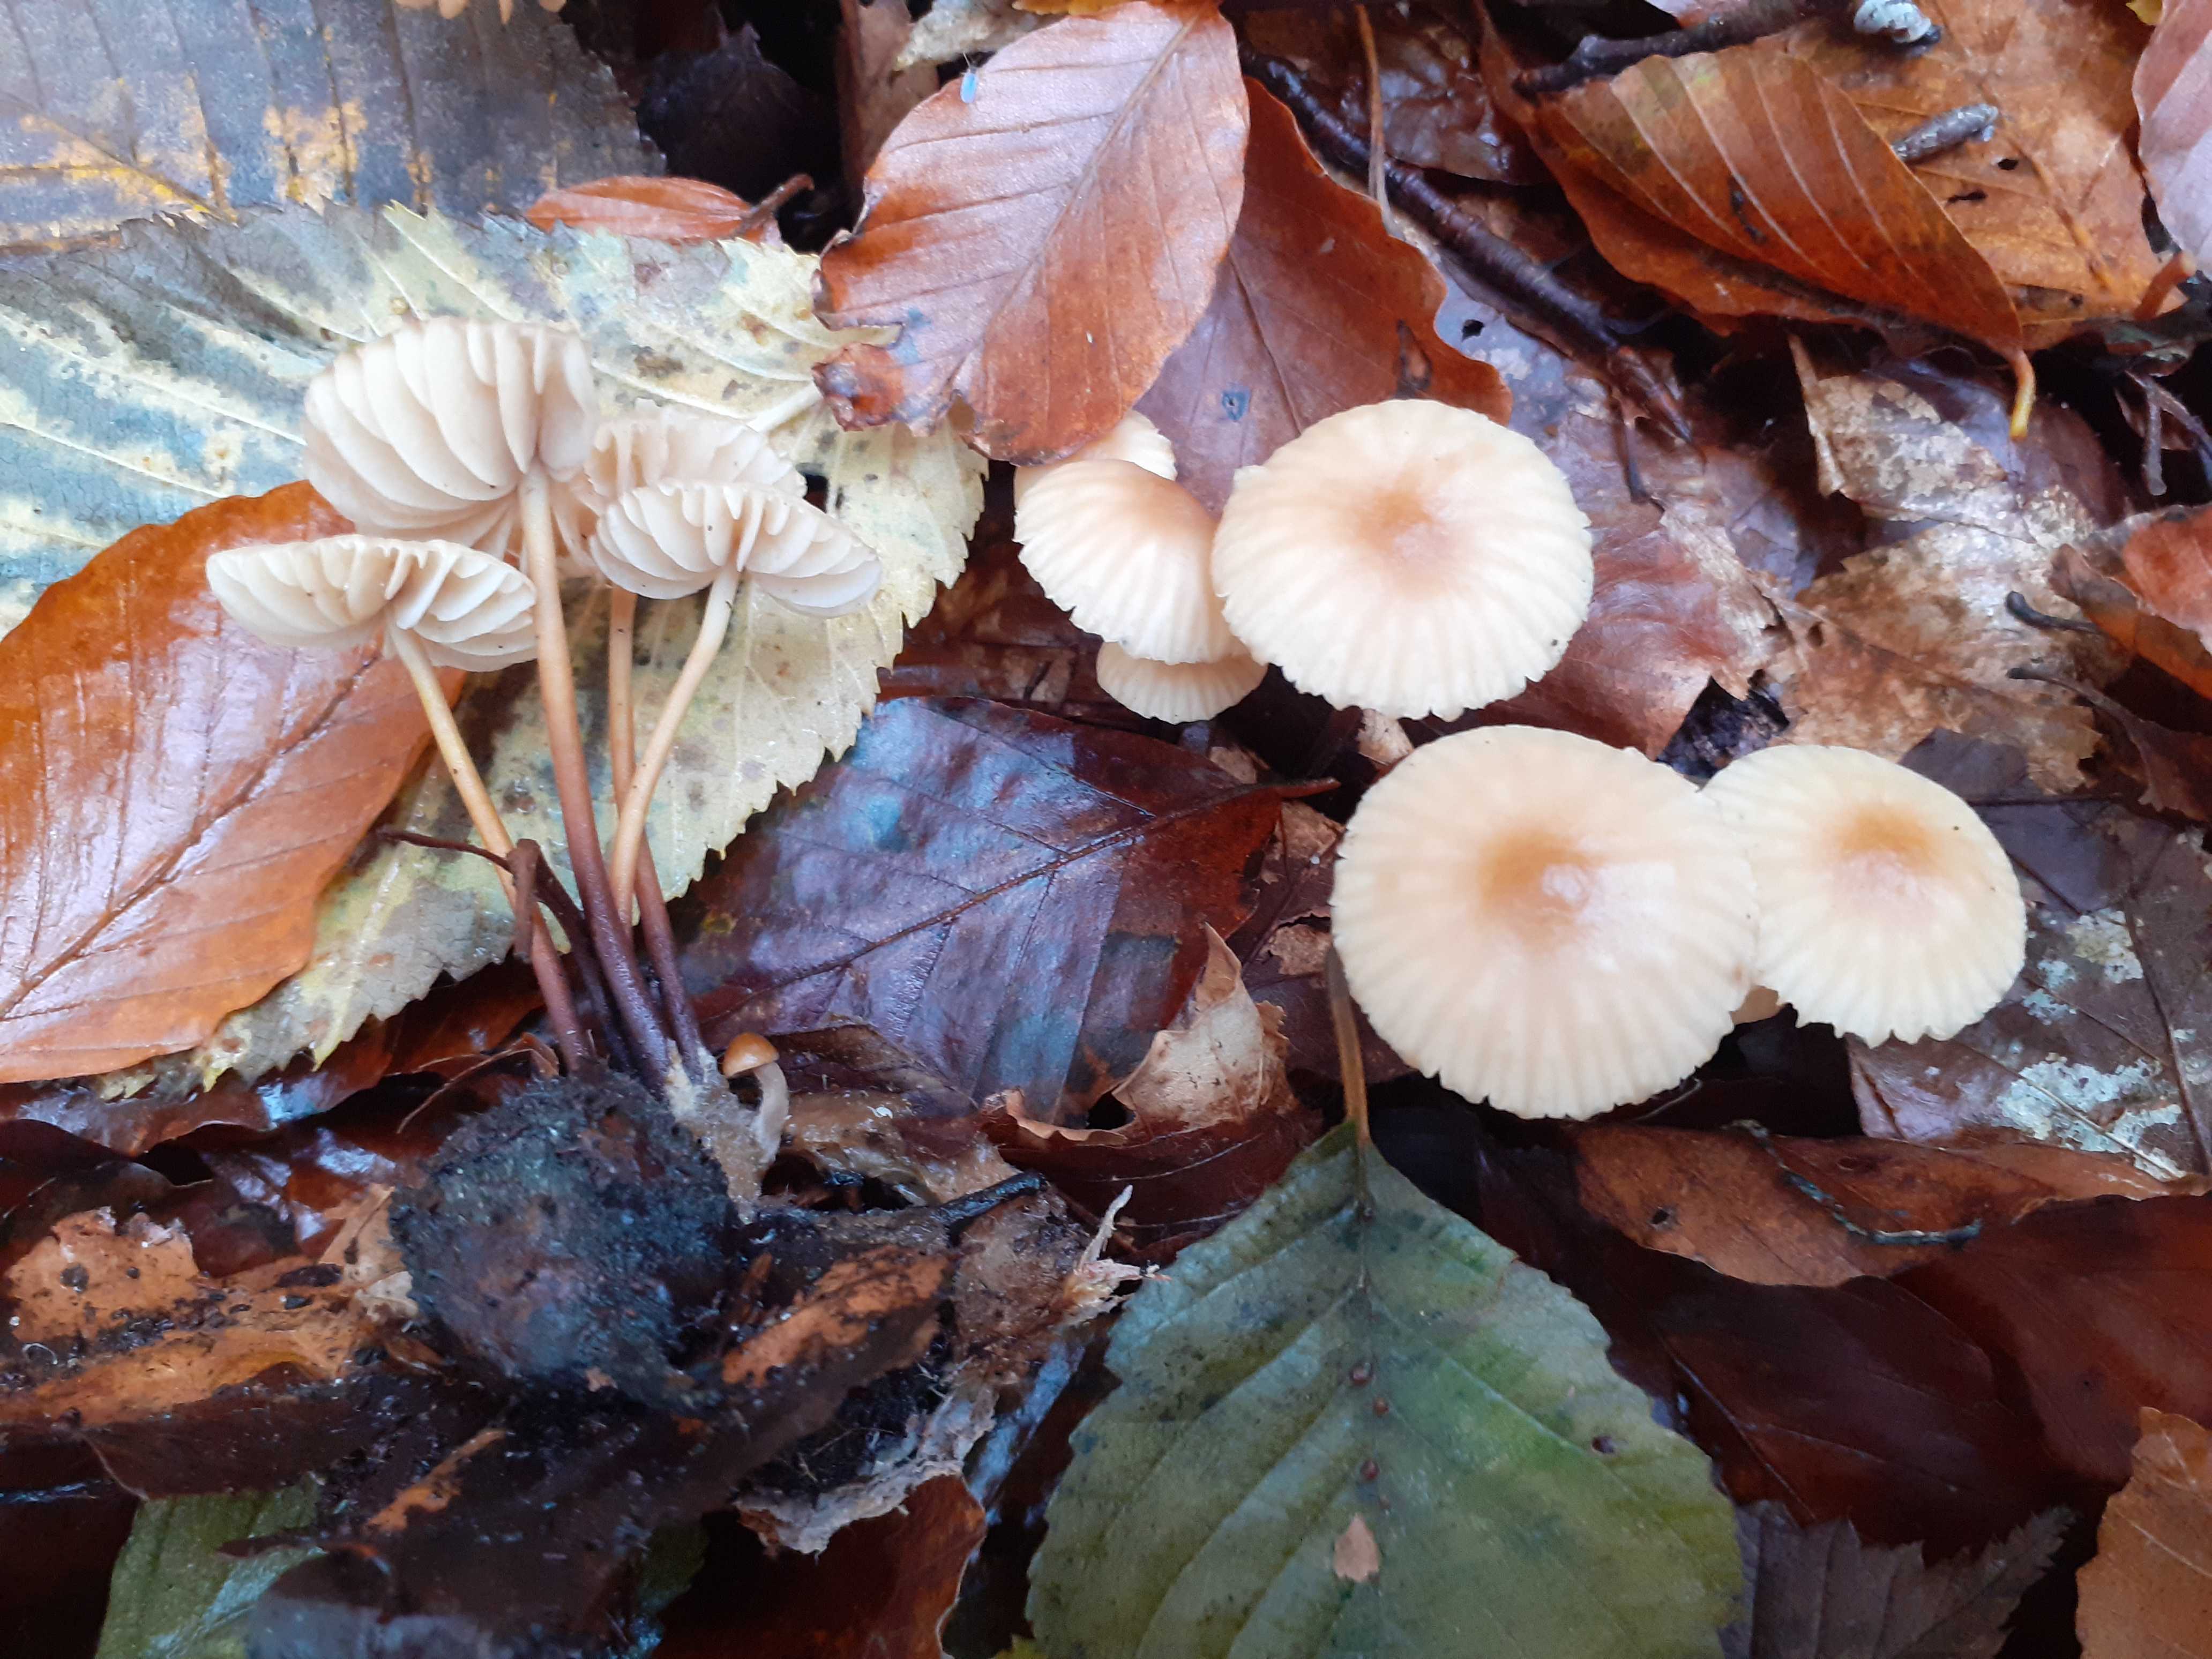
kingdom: Fungi
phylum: Basidiomycota
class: Agaricomycetes
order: Agaricales
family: Marasmiaceae
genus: Marasmius
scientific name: Marasmius torquescens
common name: filtfodet bruskhat
